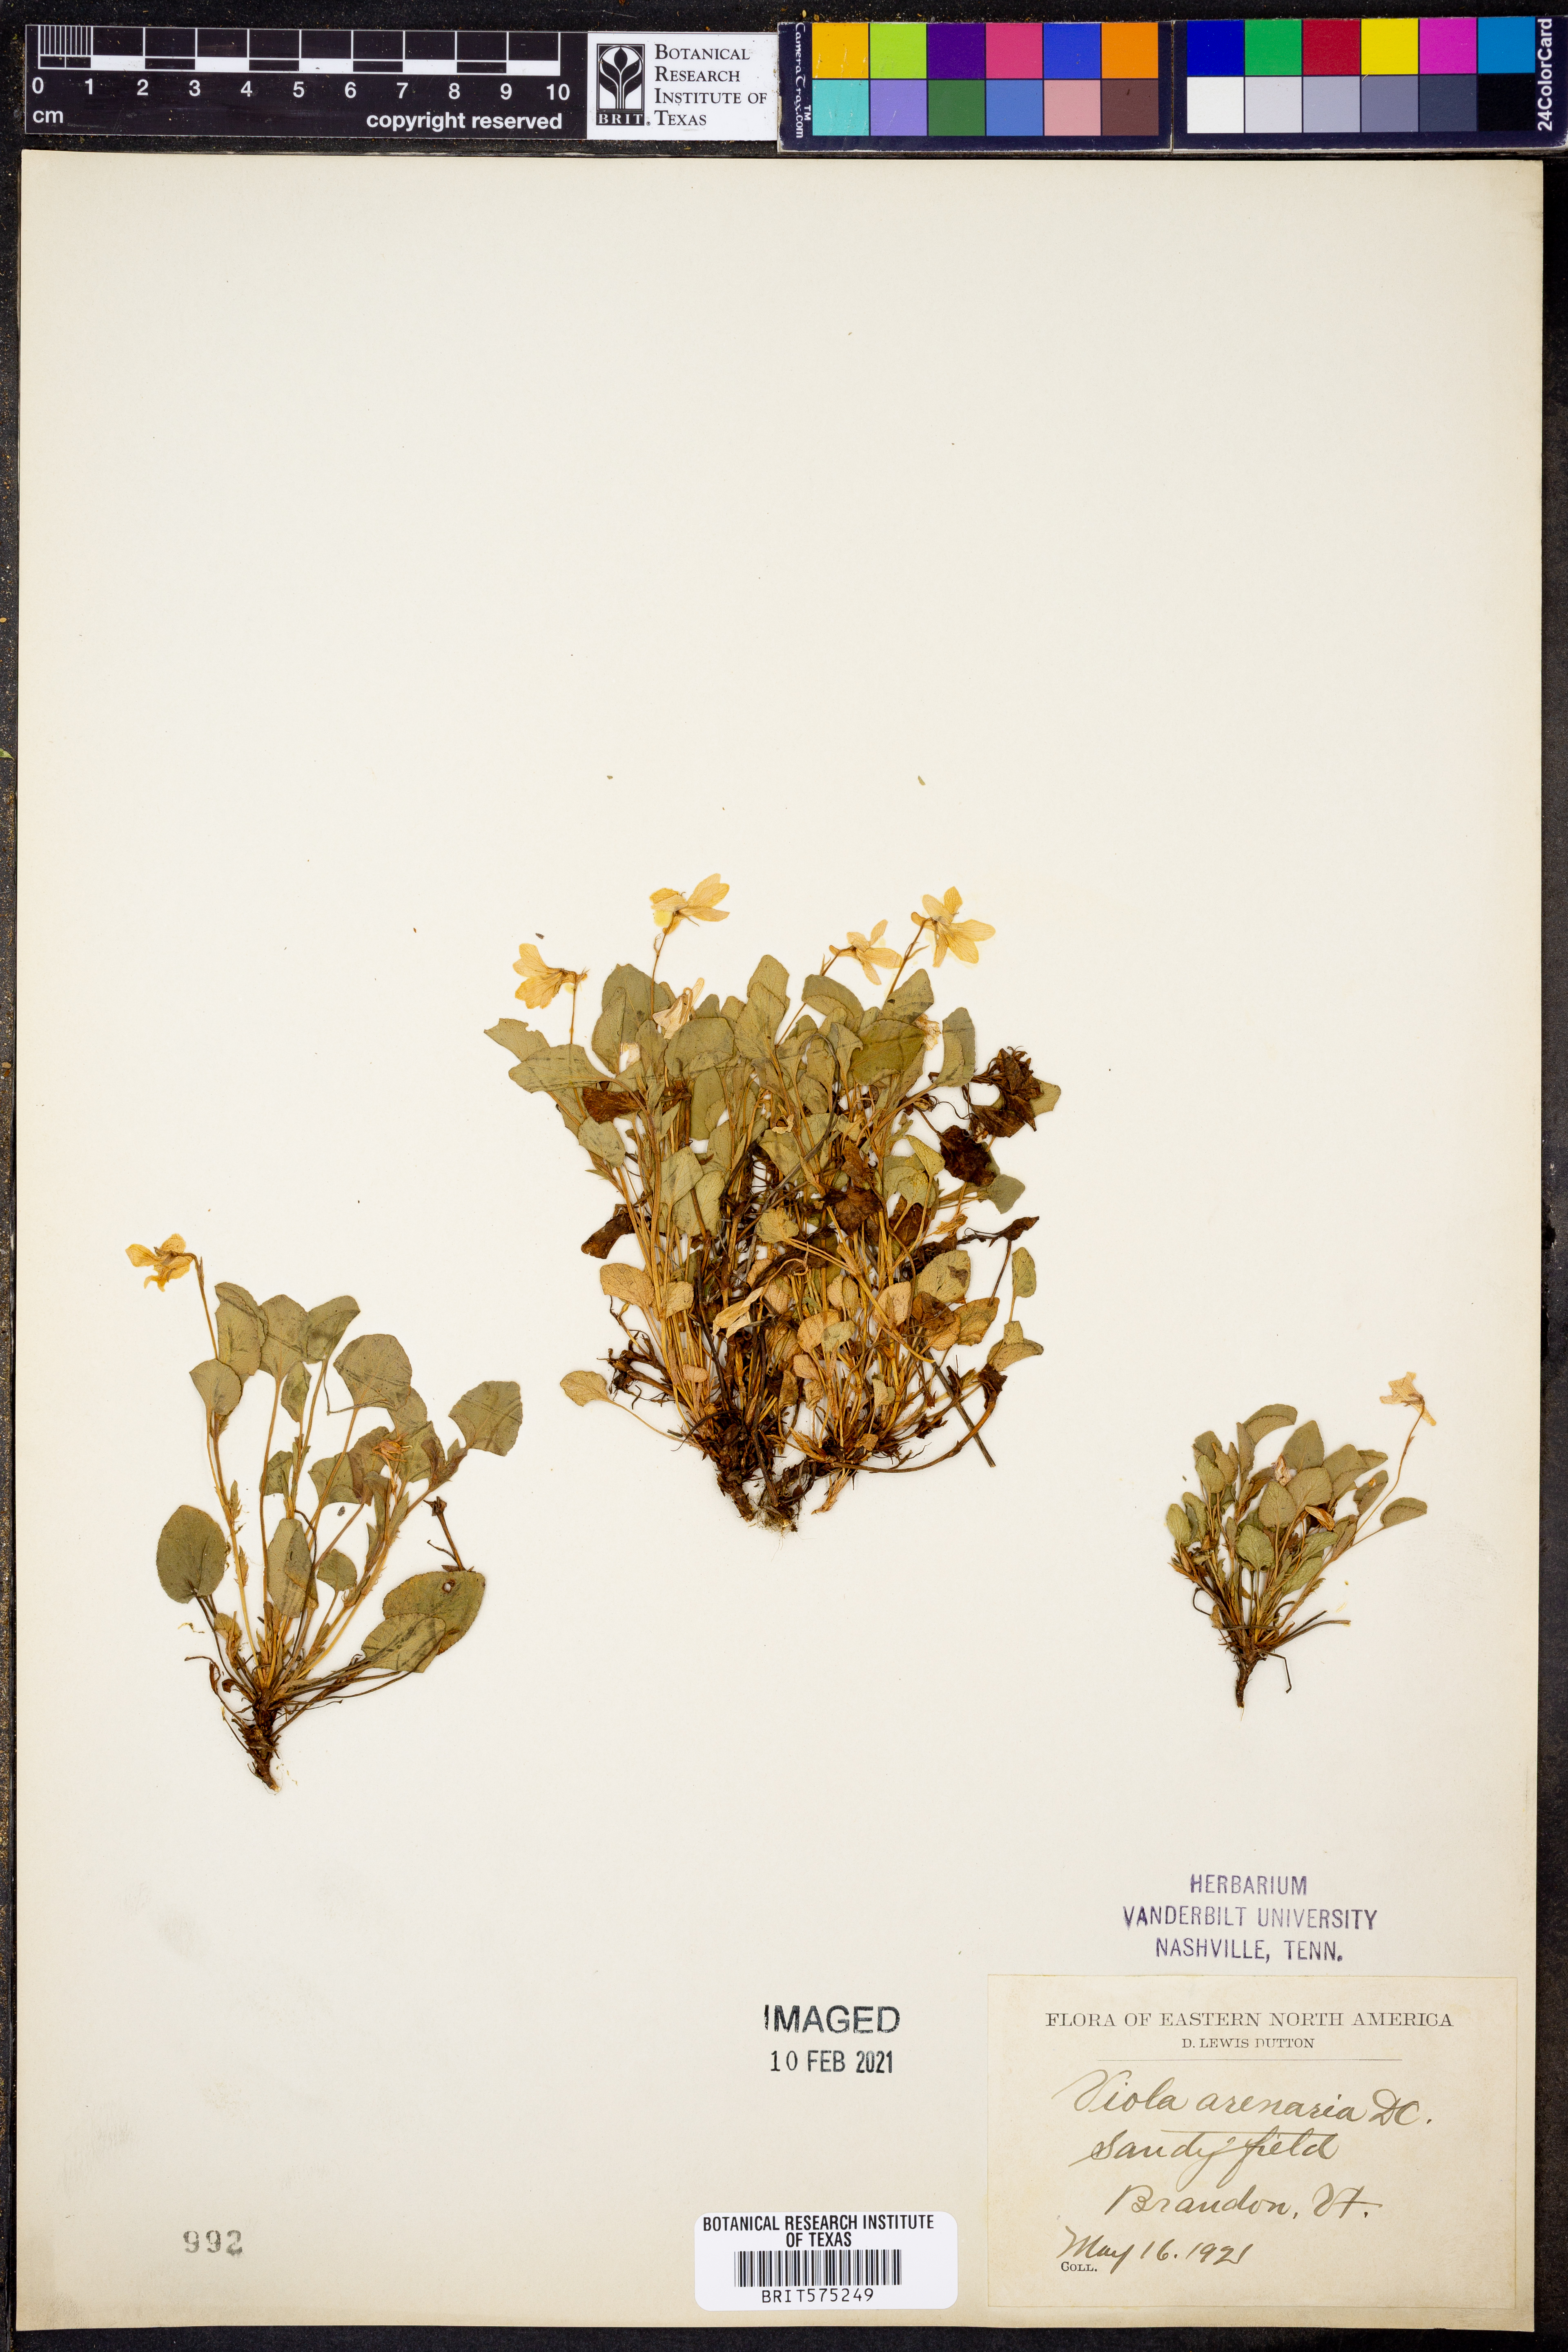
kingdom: Plantae
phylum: Tracheophyta
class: Magnoliopsida
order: Malpighiales
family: Violaceae
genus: Viola
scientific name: Viola rupestris
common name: Teesdale violet
